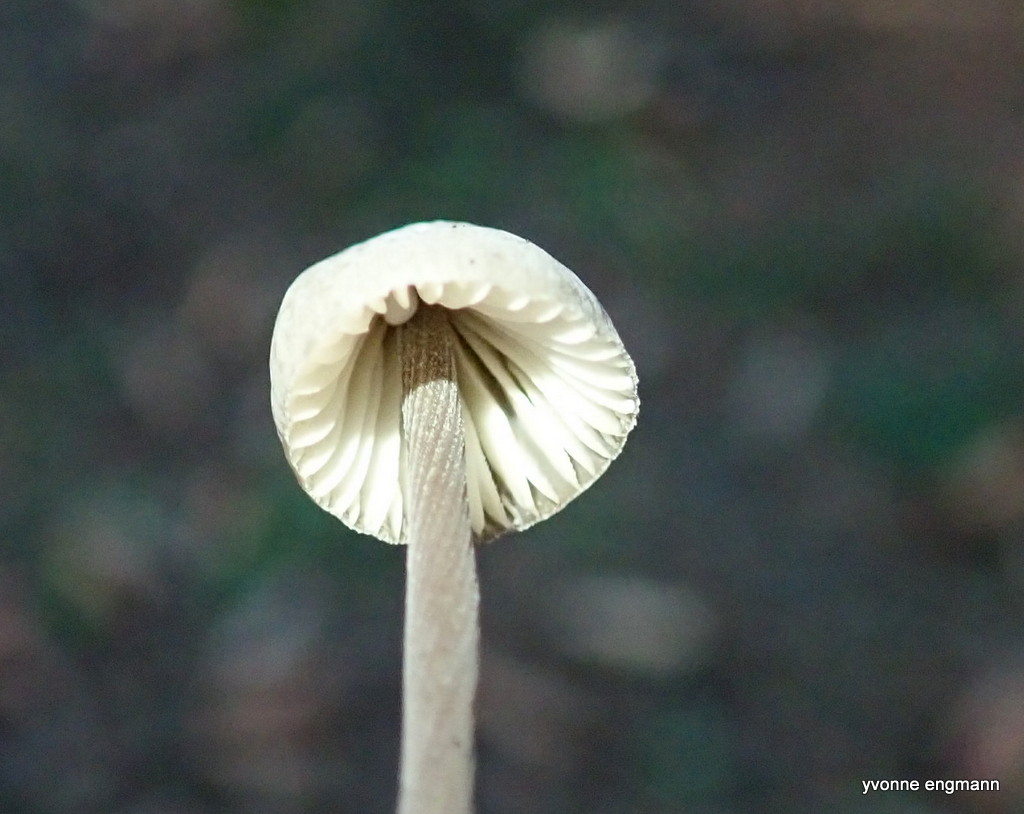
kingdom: Fungi
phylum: Basidiomycota
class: Agaricomycetes
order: Agaricales
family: Mycenaceae
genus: Mycena
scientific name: Mycena galopus
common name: hvidmælket huesvamp
